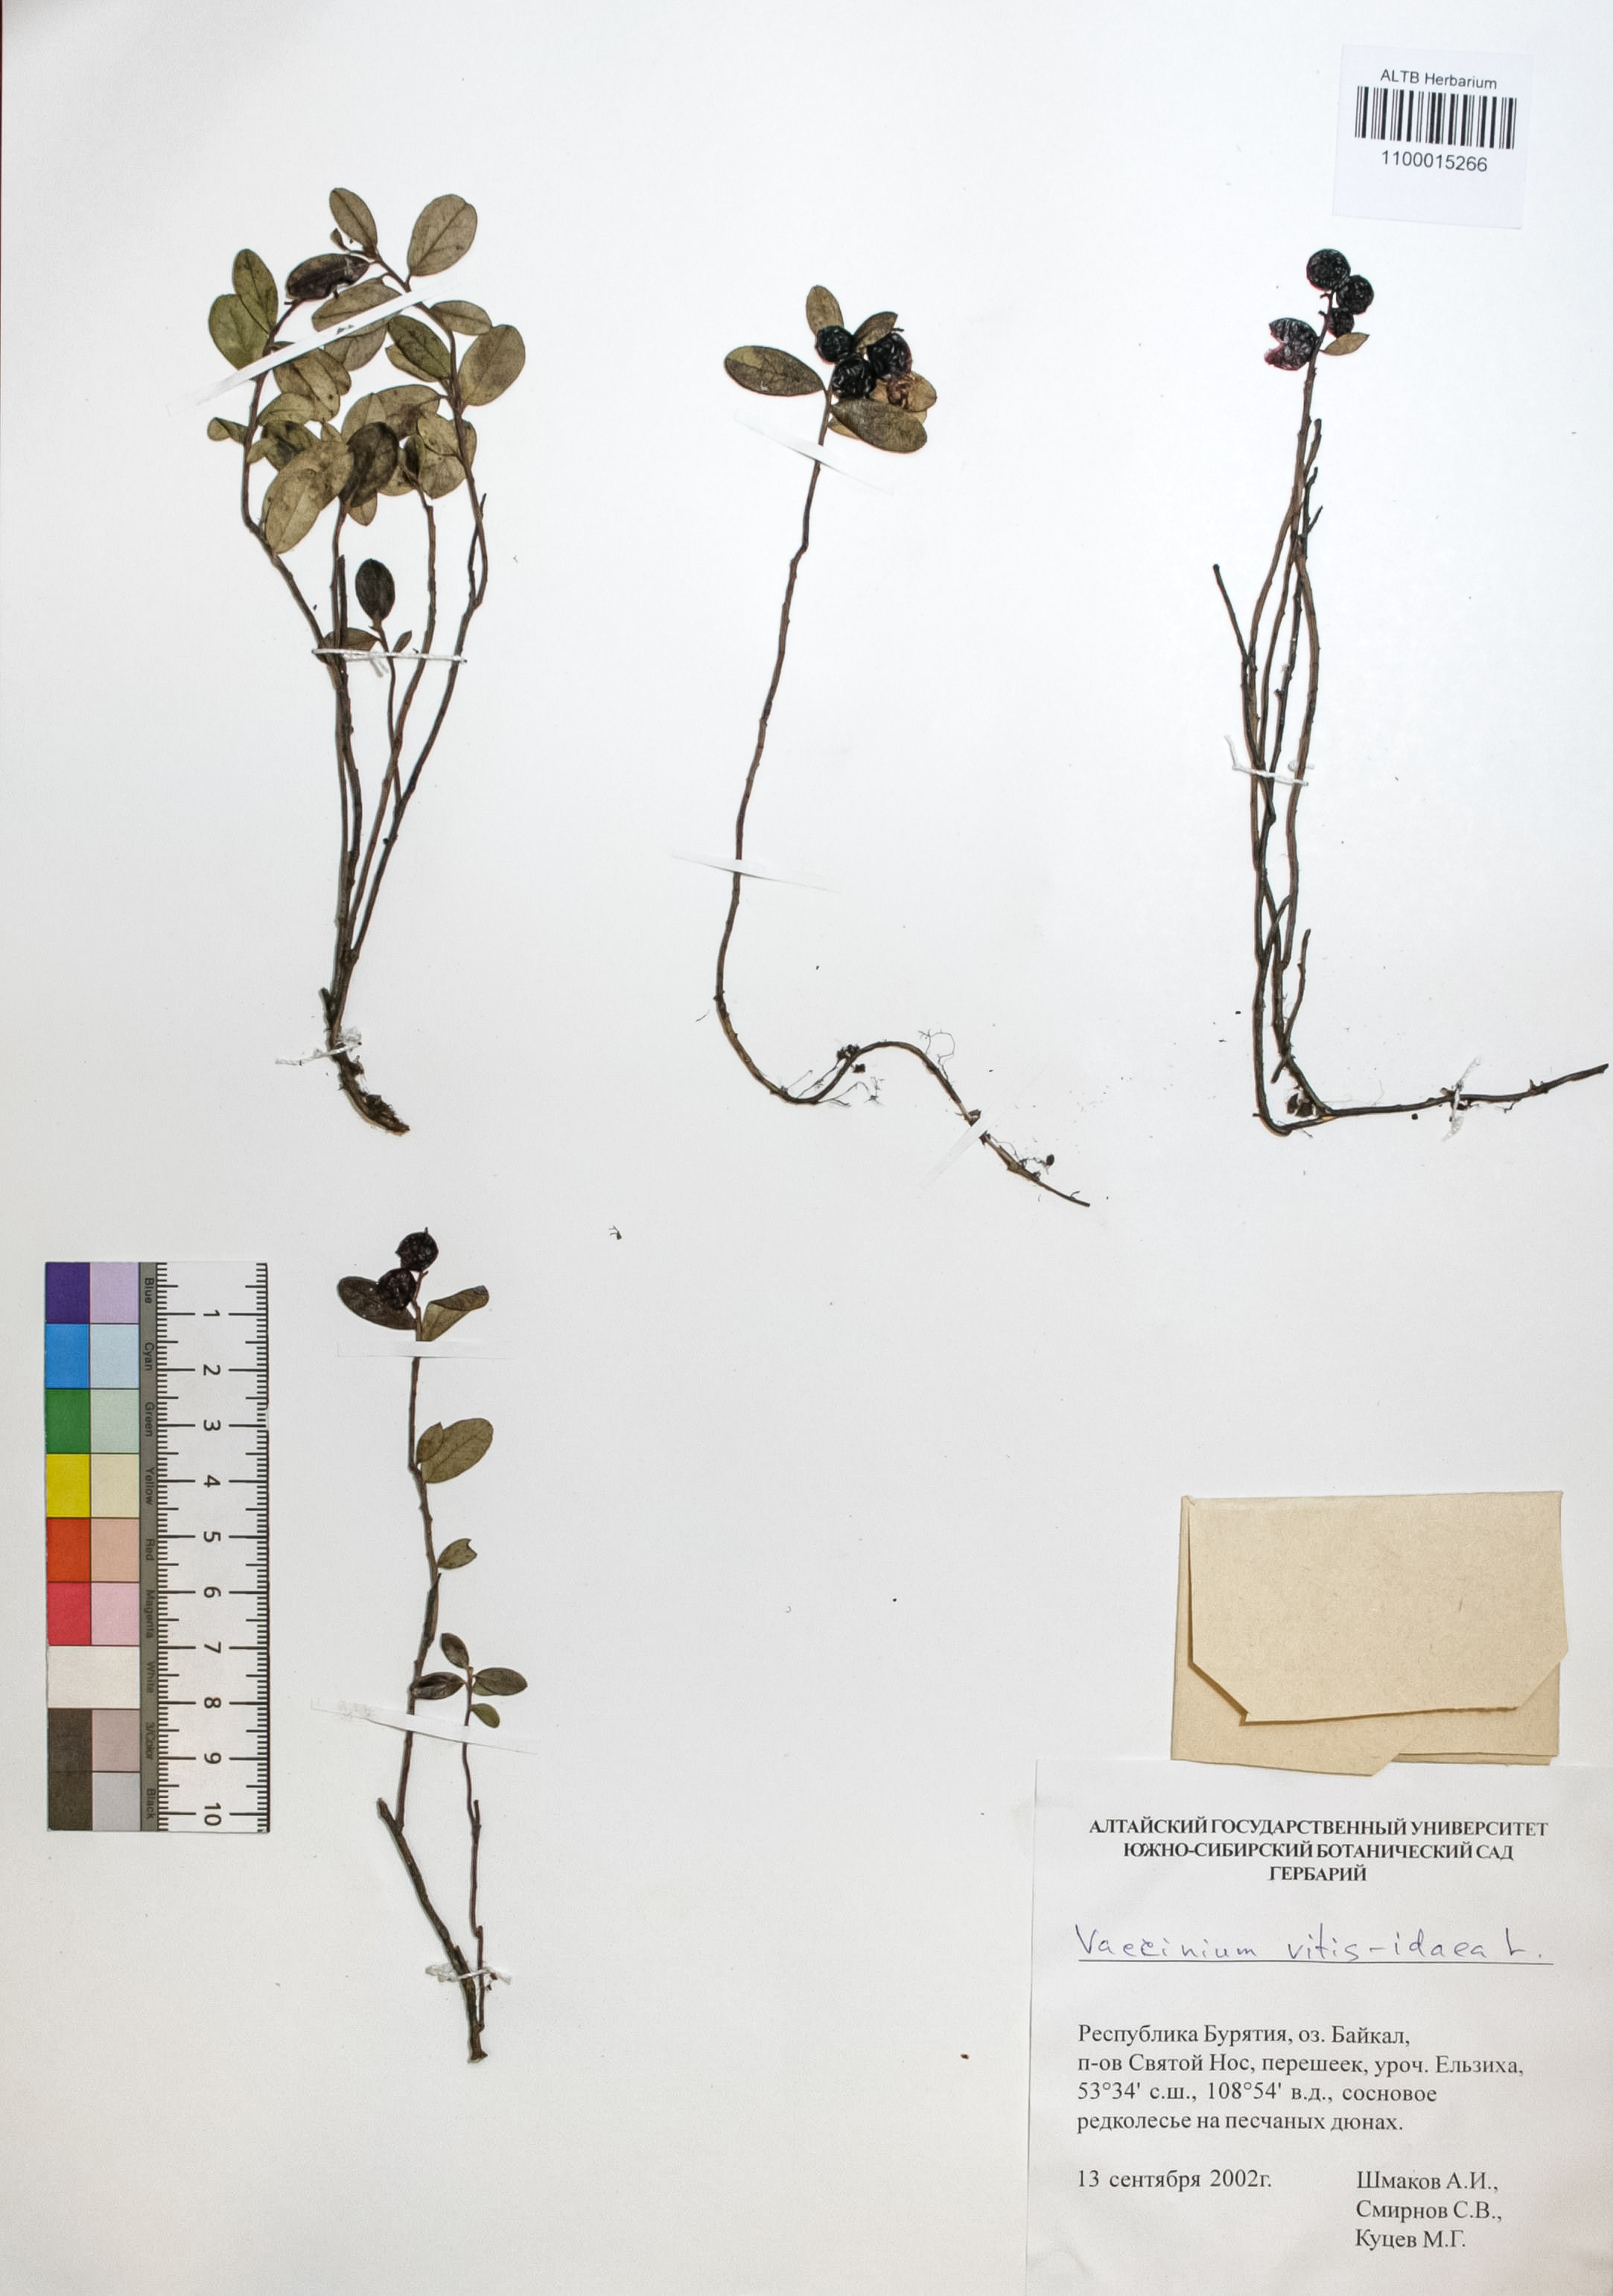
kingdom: Plantae
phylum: Tracheophyta
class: Magnoliopsida
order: Ericales
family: Ericaceae
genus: Vaccinium
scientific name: Vaccinium vitis-idaea
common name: Cowberry
